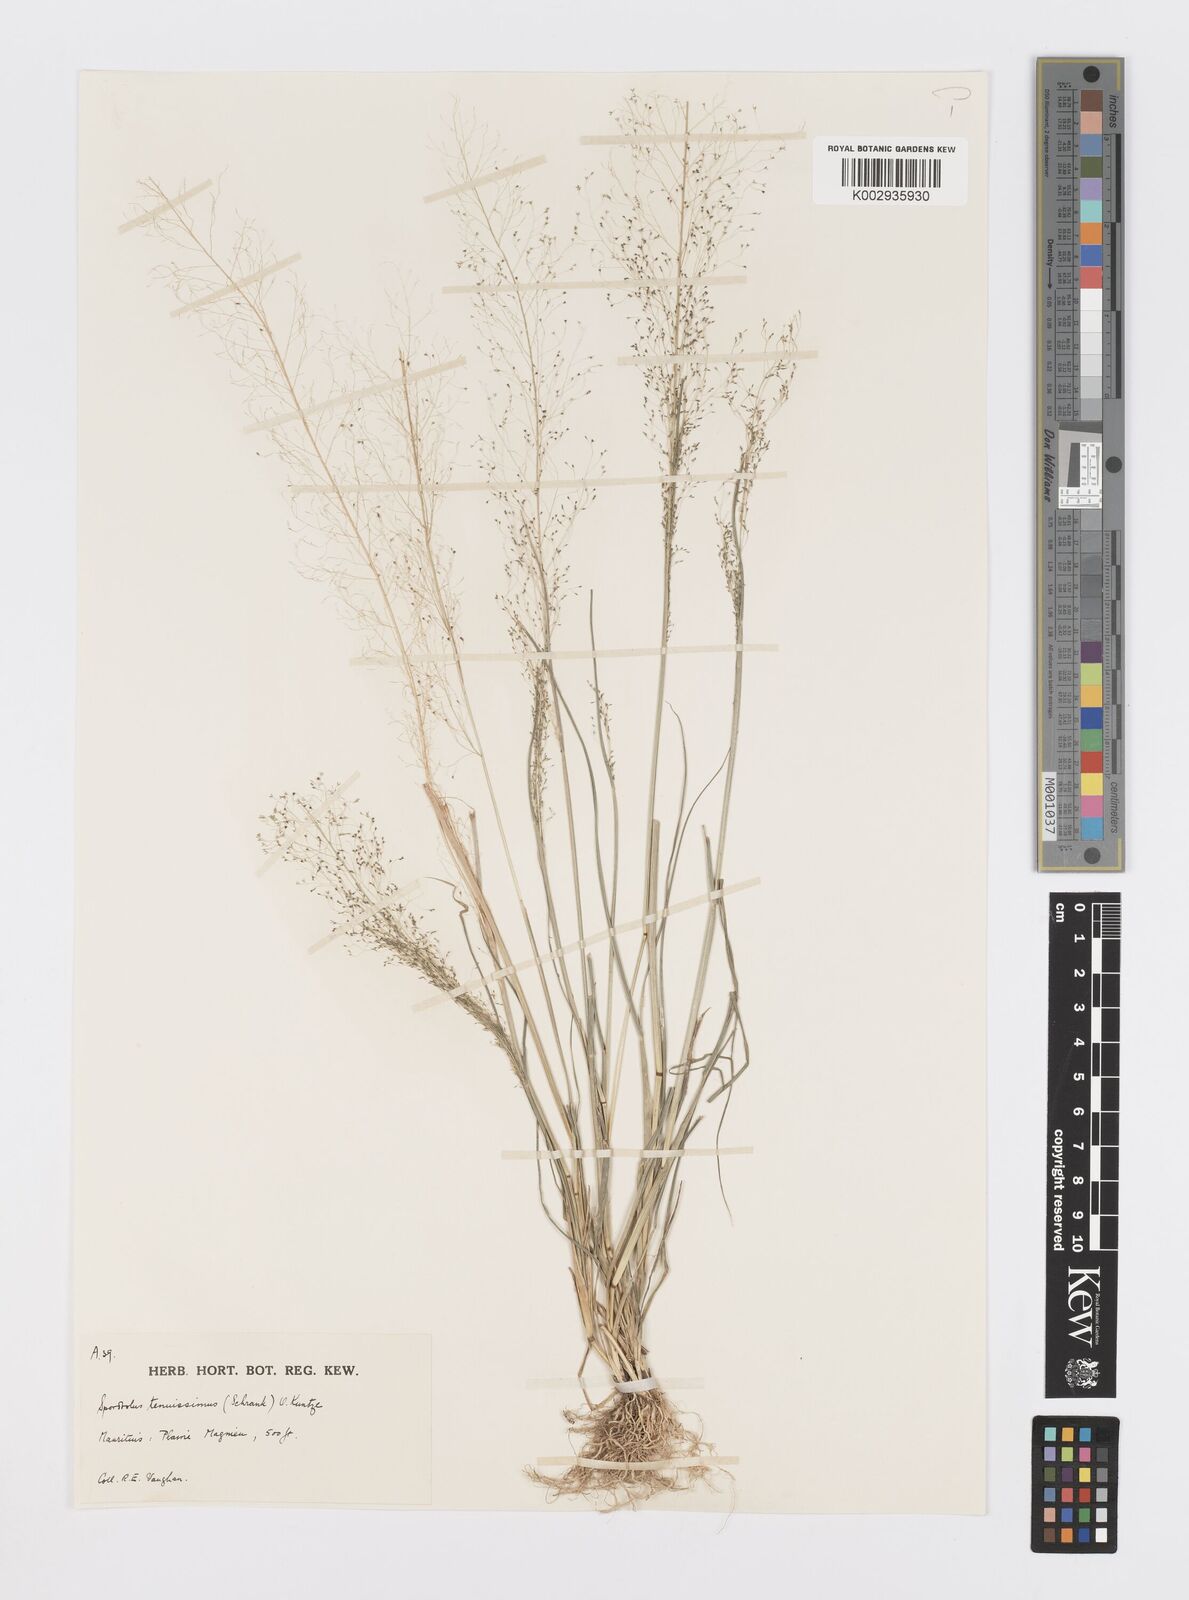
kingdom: Plantae
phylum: Tracheophyta
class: Liliopsida
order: Poales
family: Poaceae
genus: Sporobolus
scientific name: Sporobolus tenuissimus
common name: Tropical dropseed
